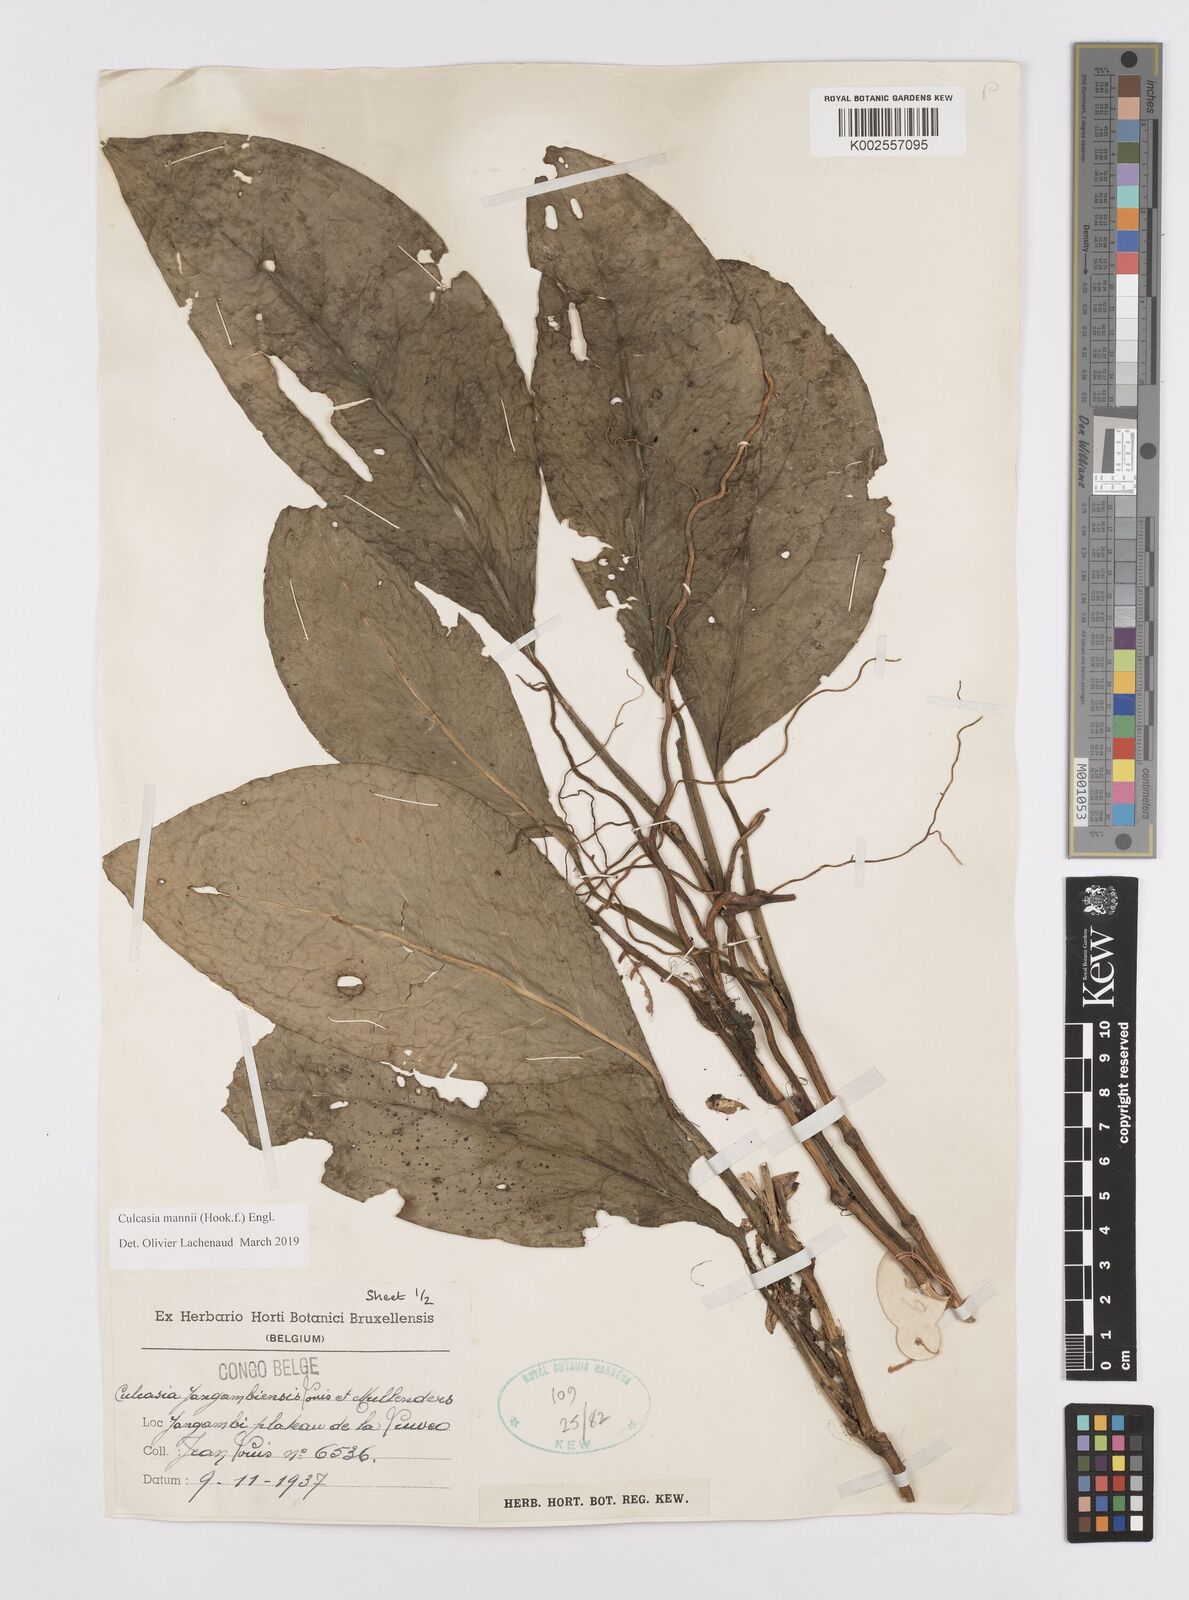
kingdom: Plantae
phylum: Tracheophyta
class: Liliopsida
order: Alismatales
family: Araceae
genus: Culcasia
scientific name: Culcasia mannii
